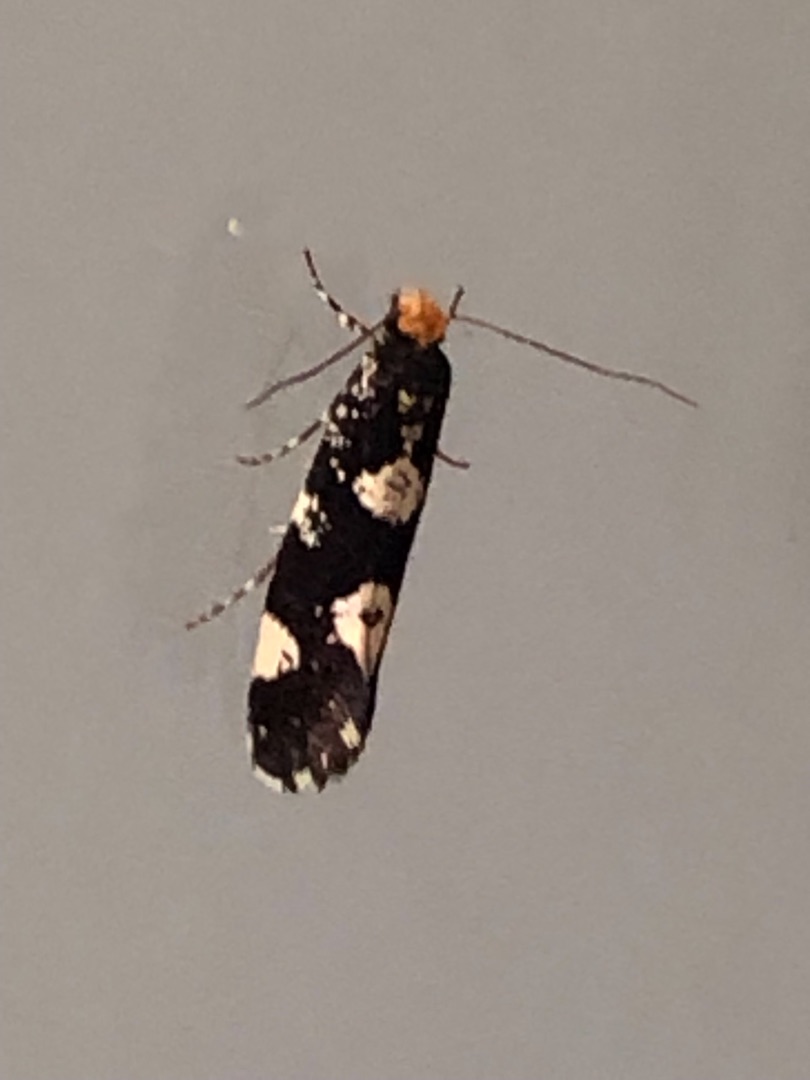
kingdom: Animalia
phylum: Arthropoda
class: Insecta
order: Lepidoptera
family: Tineidae
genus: Triaxomera
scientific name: Triaxomera fulvimitrella
